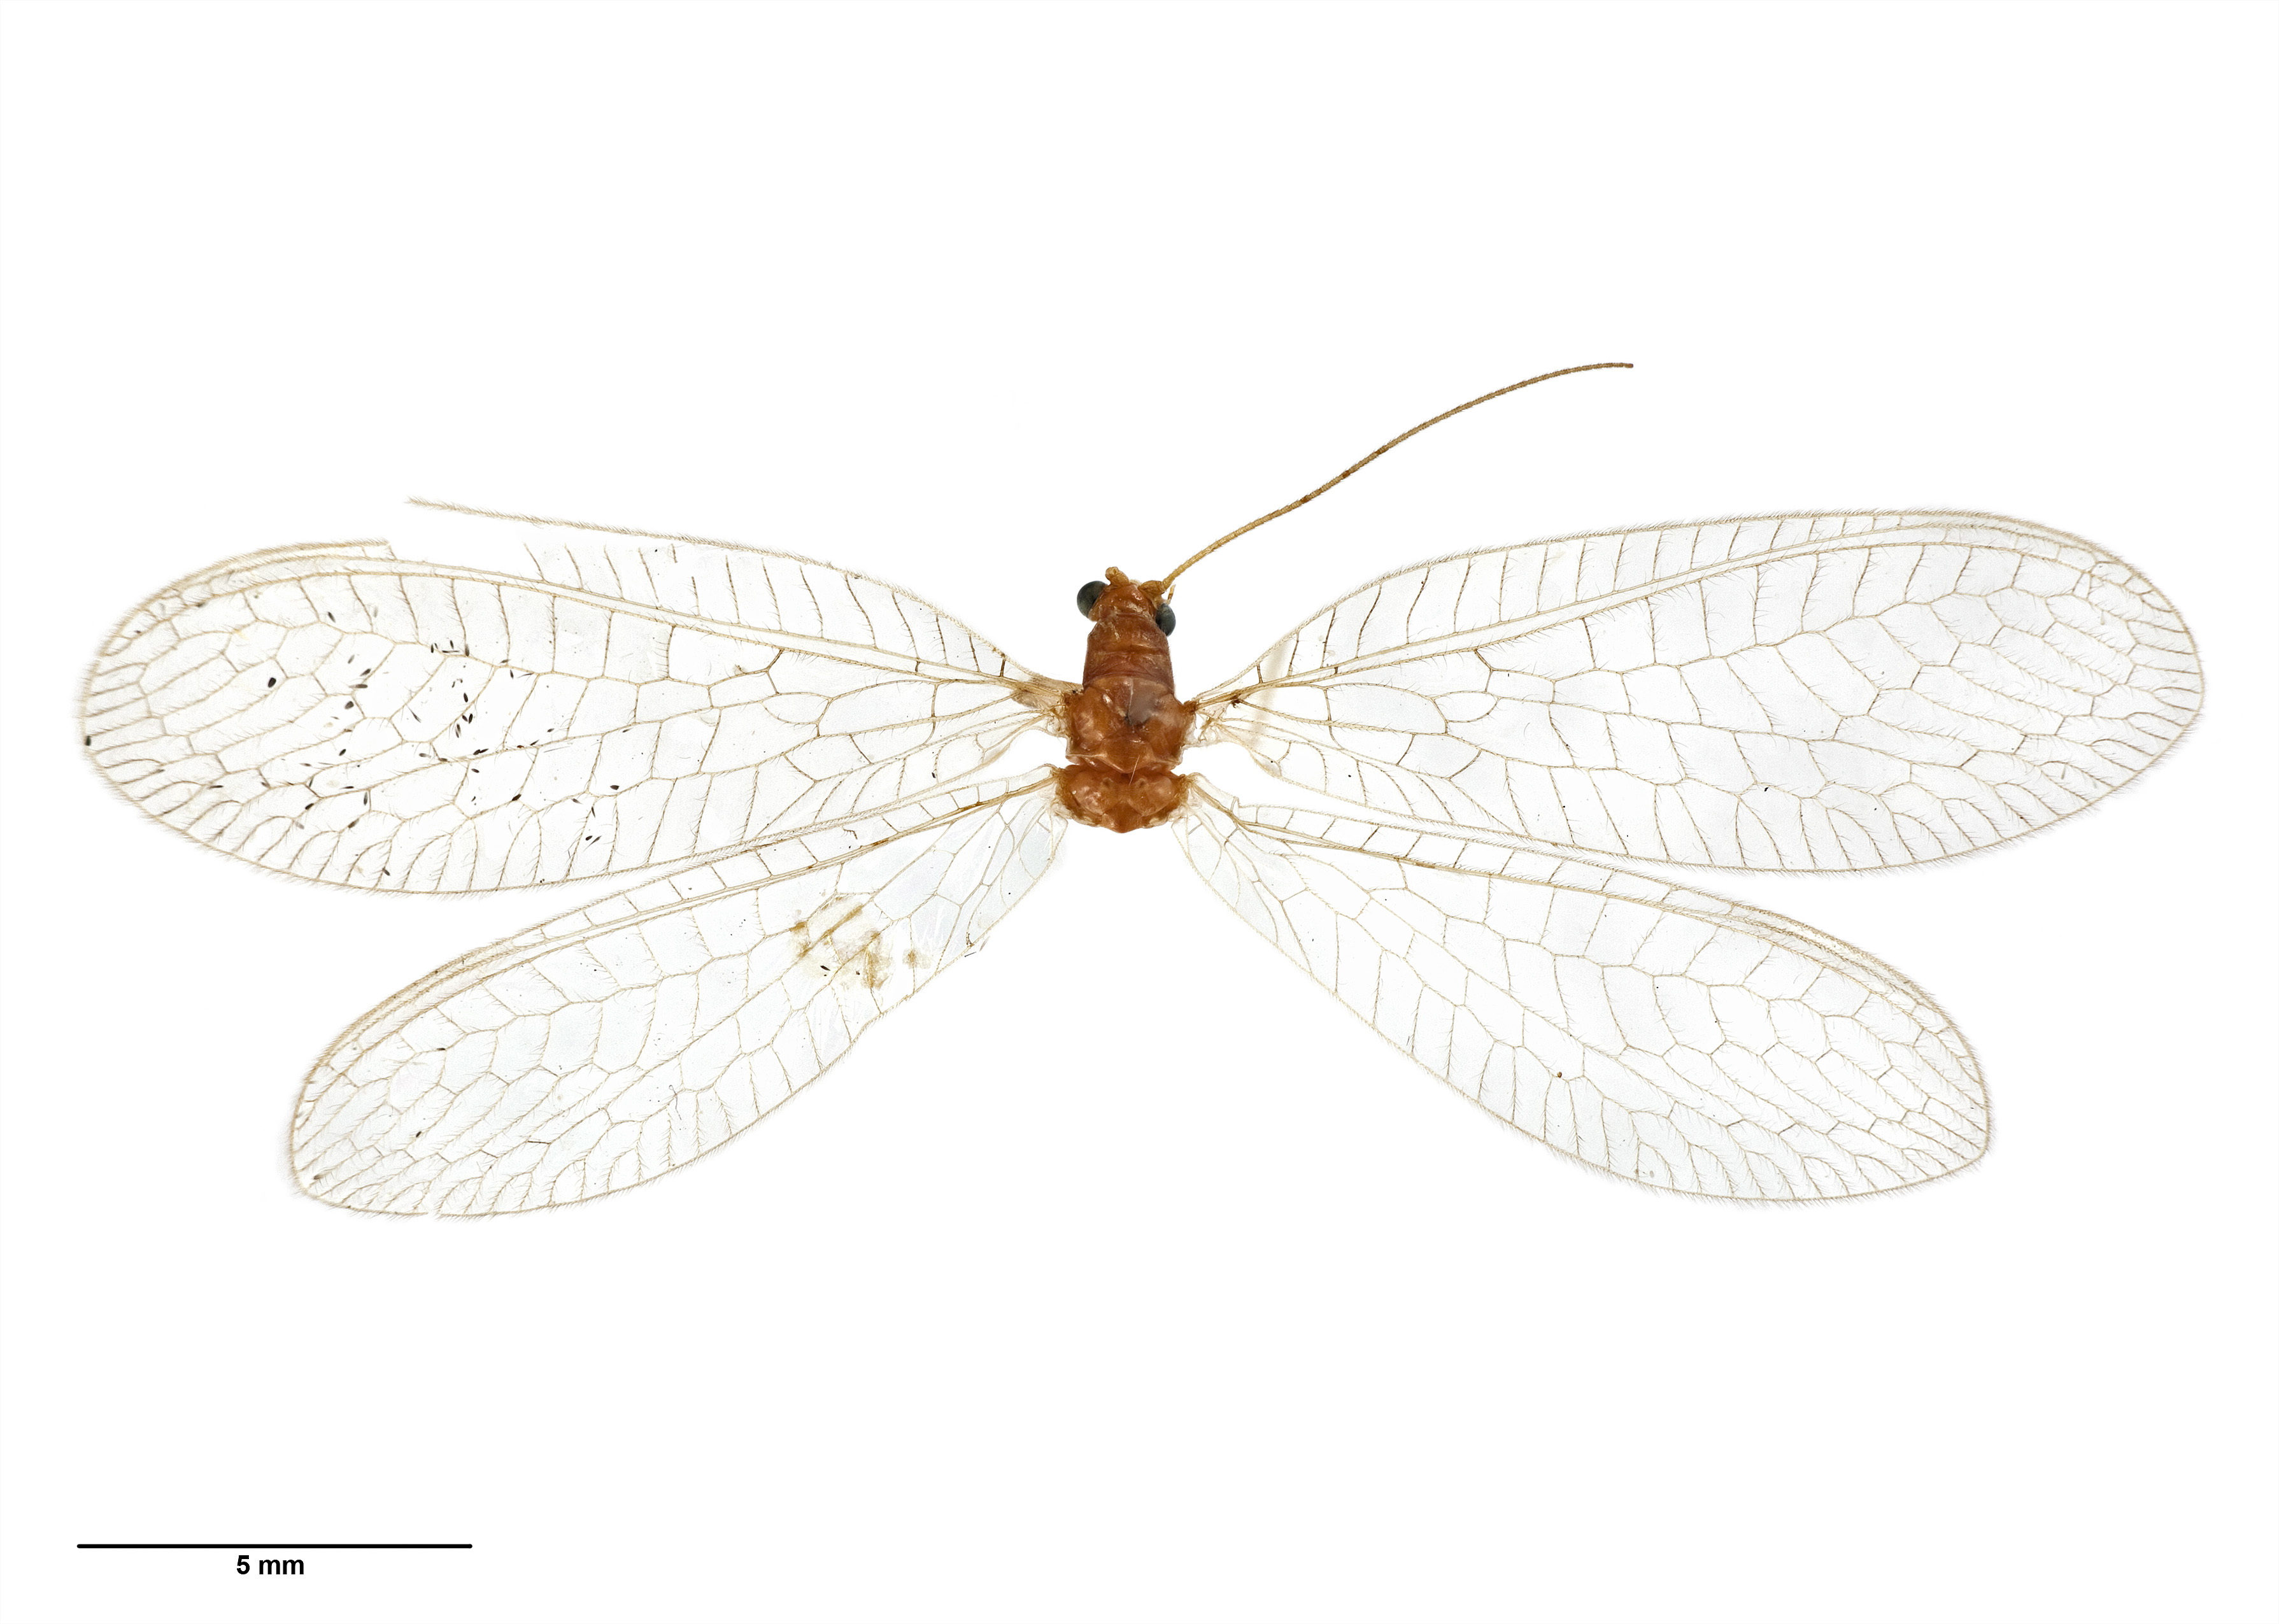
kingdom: Animalia
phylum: Arthropoda
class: Insecta
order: Neuroptera
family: Chrysopidae
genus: Mallada
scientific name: Mallada basalis
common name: Green lacewing
